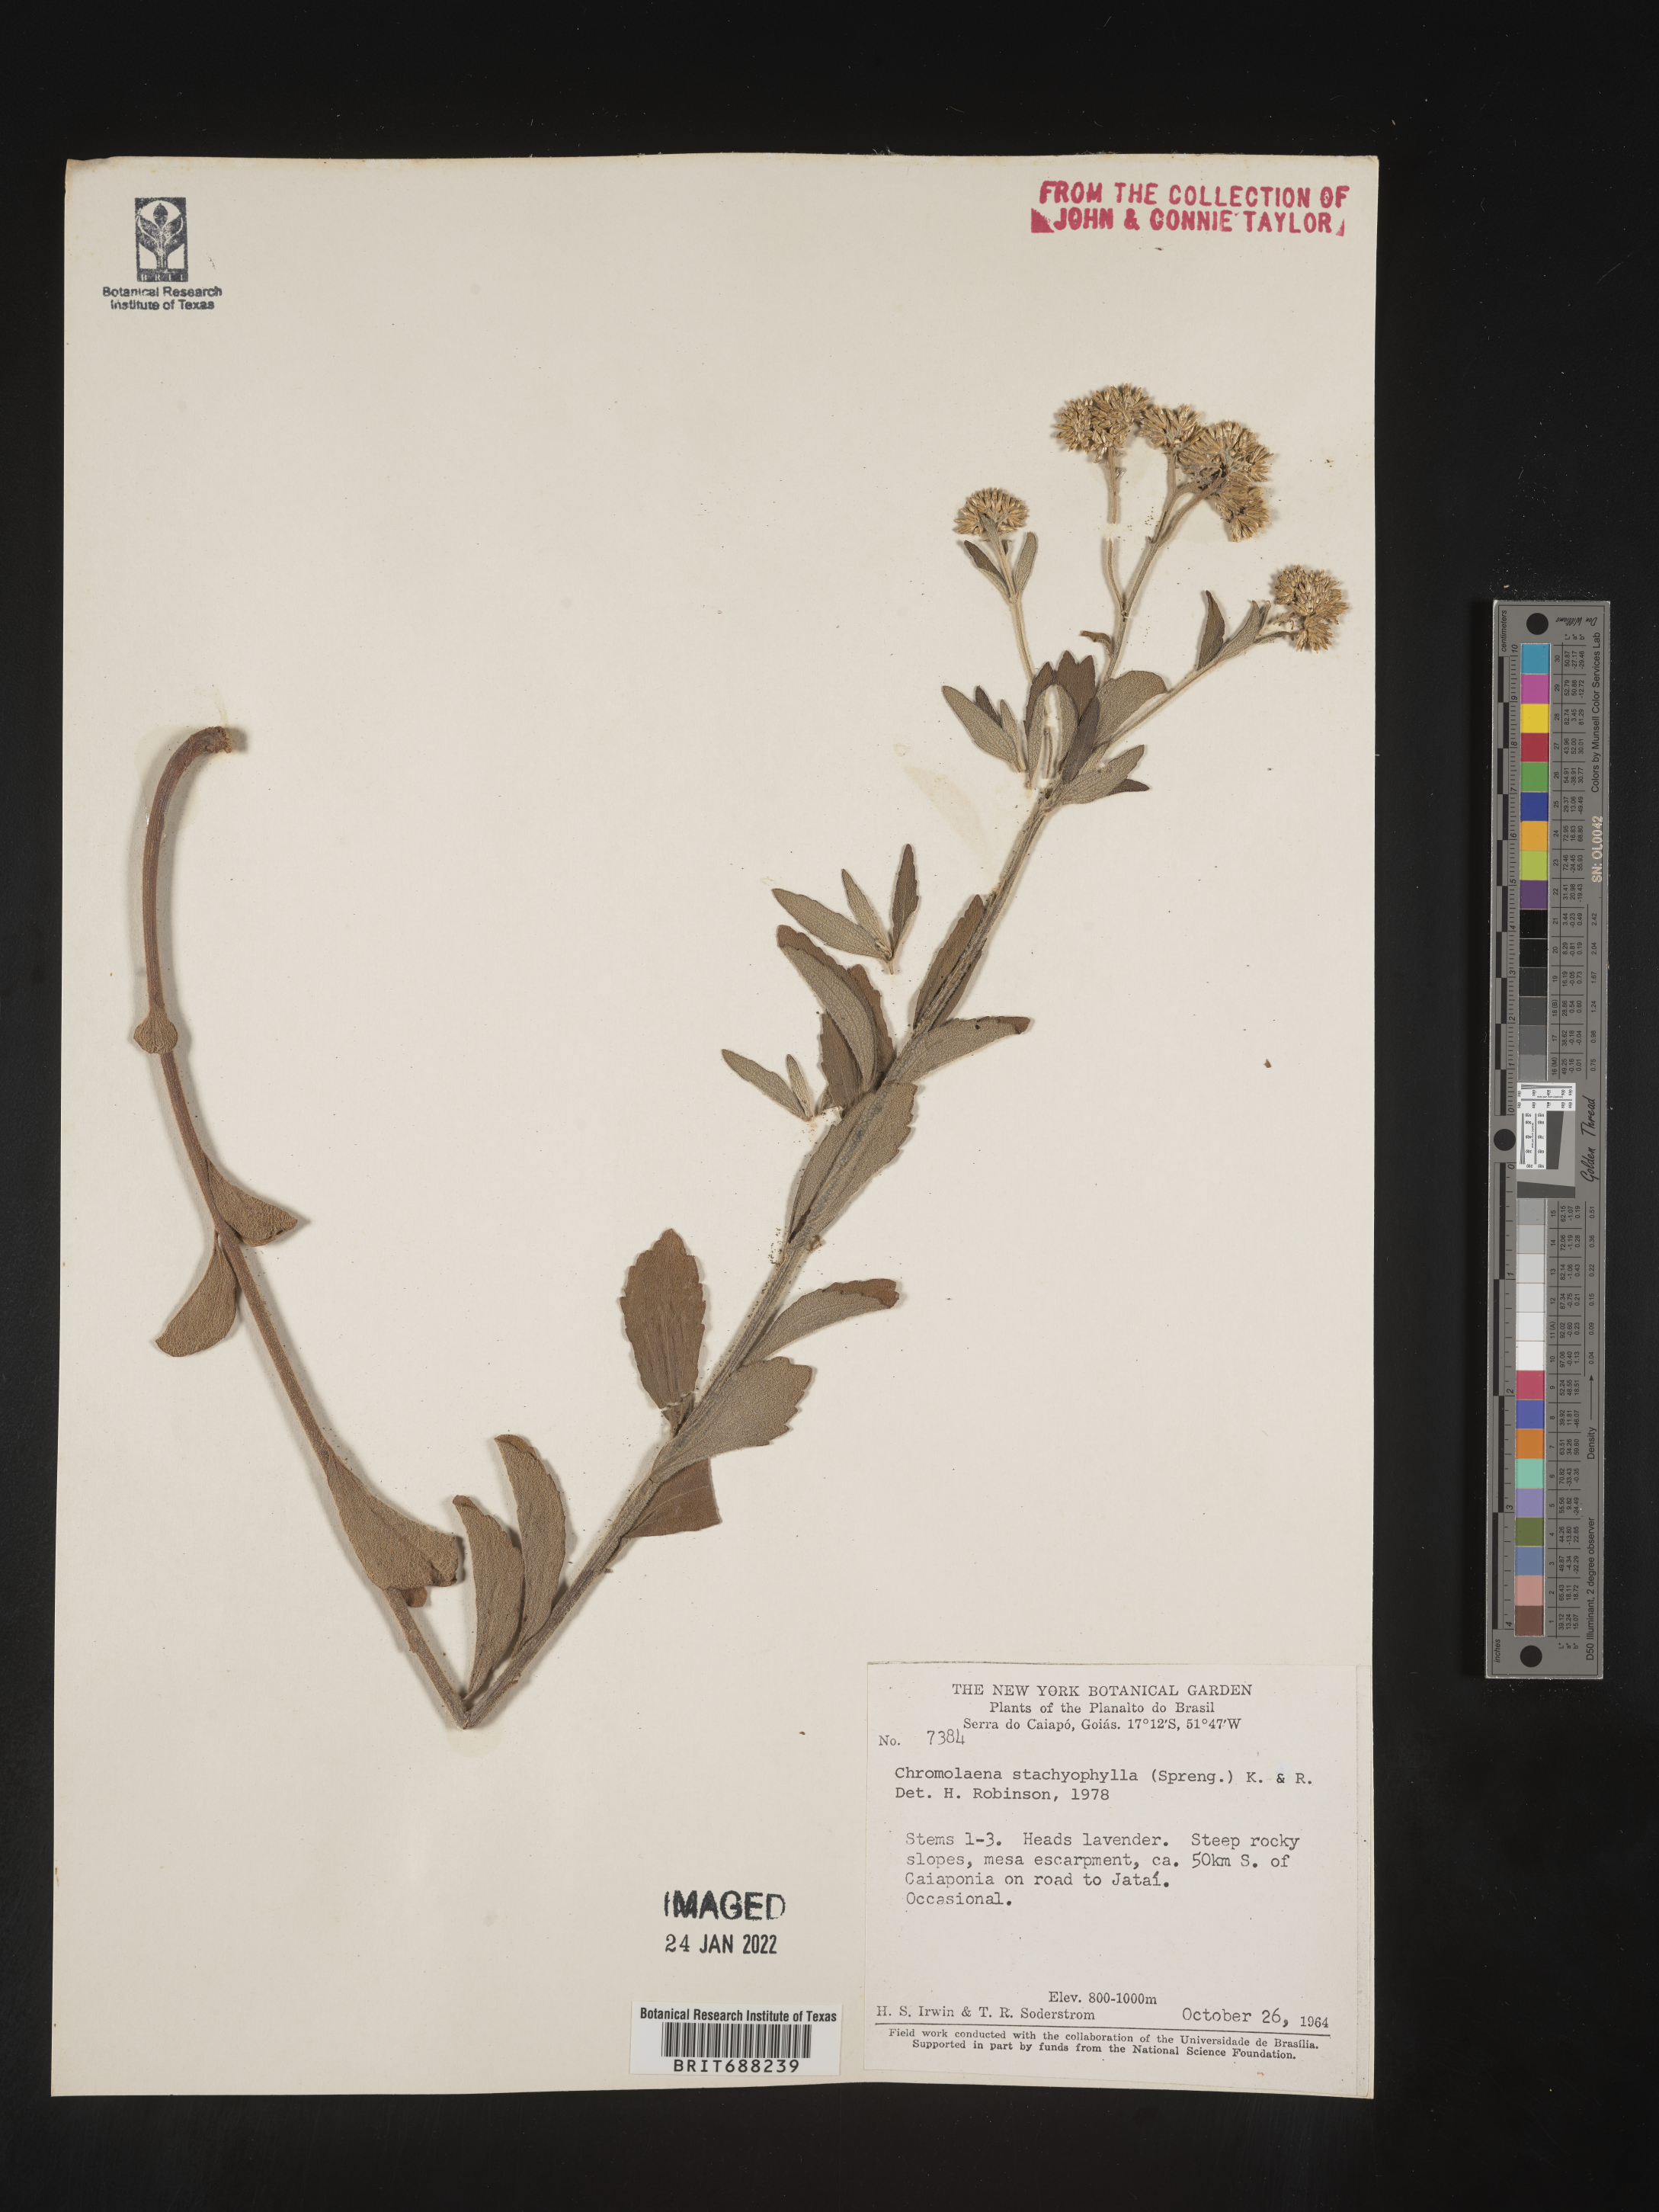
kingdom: Plantae
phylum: Tracheophyta
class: Magnoliopsida
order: Asterales
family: Asteraceae
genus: Chromolaena
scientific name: Chromolaena
